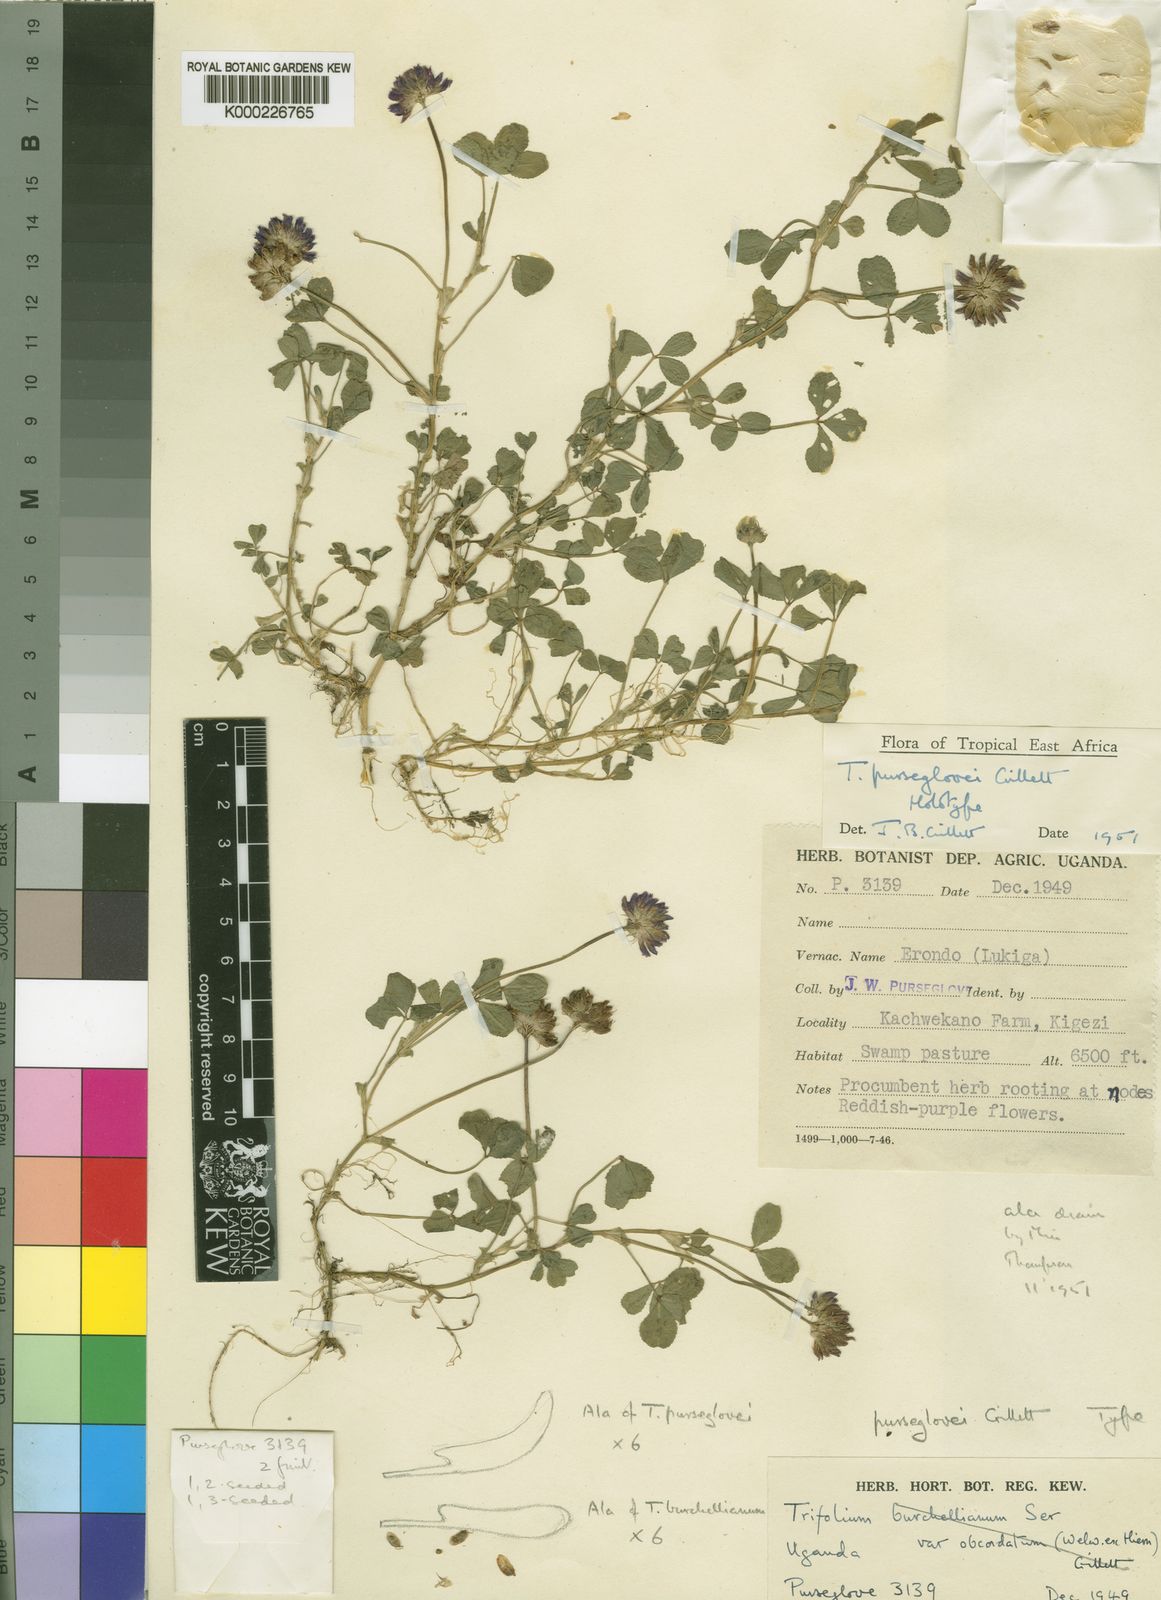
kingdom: Plantae
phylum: Tracheophyta
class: Magnoliopsida
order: Fabales
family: Fabaceae
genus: Trifolium
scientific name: Trifolium purseglovei
